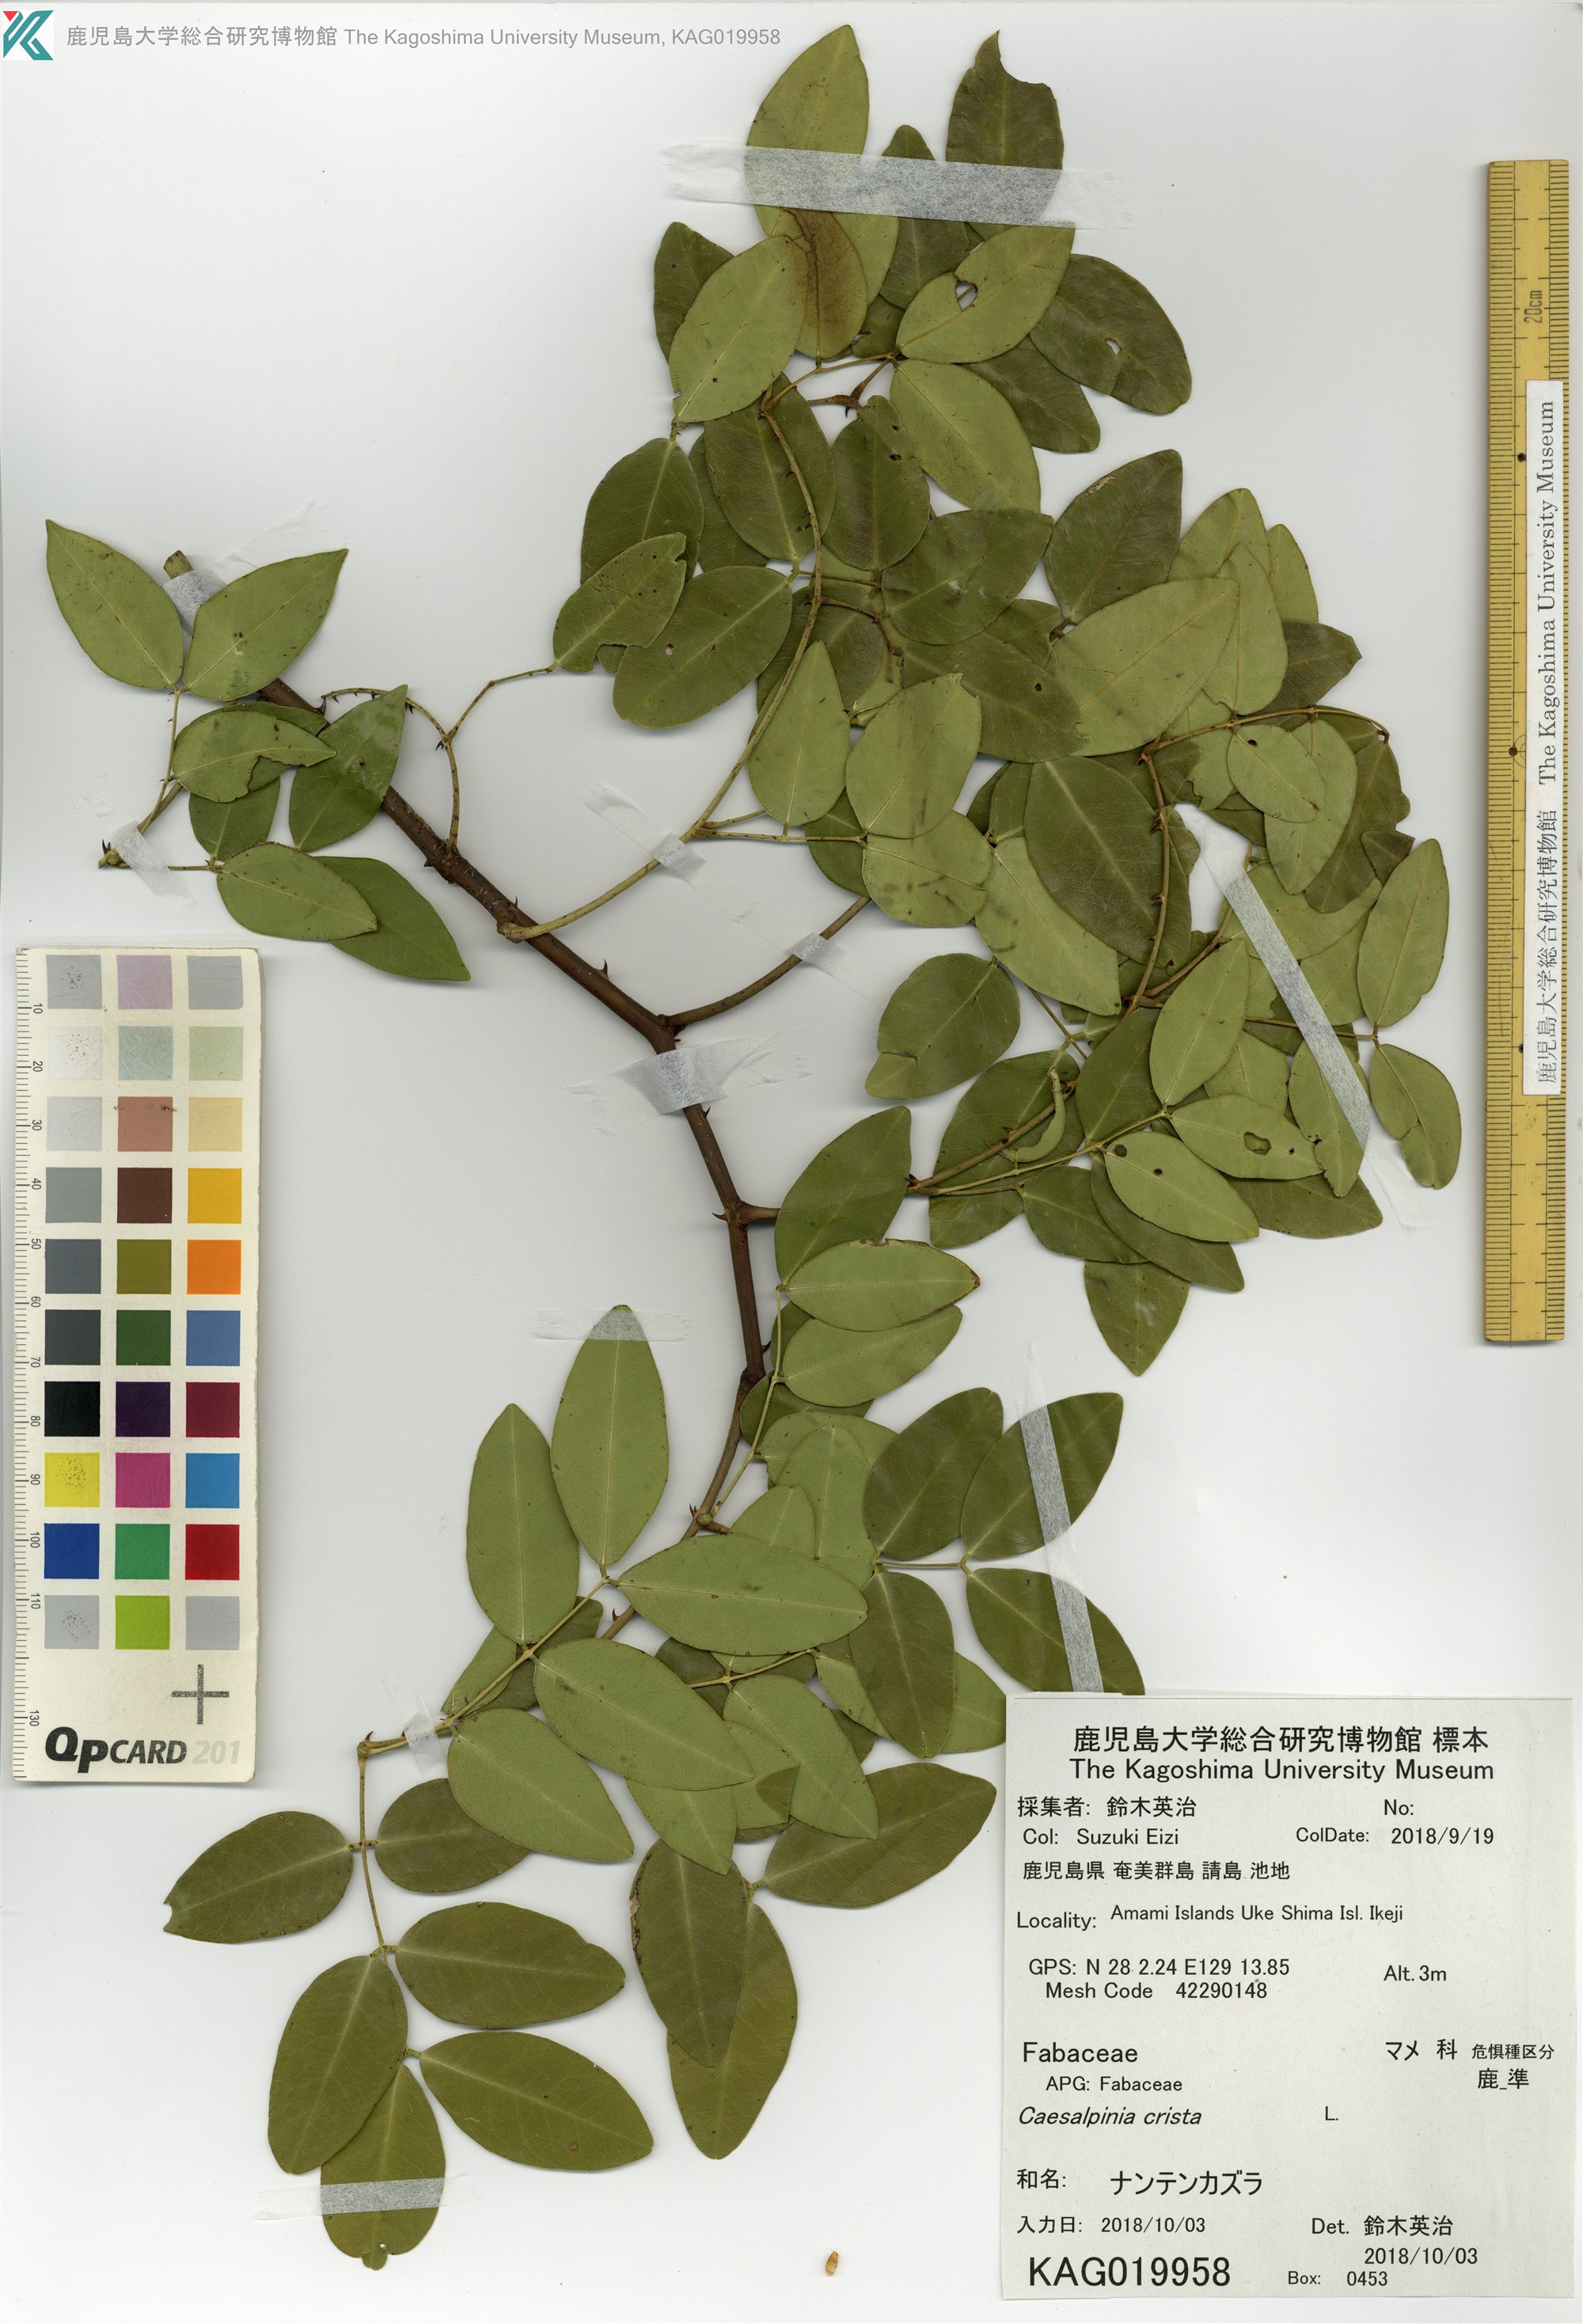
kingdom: Plantae
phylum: Tracheophyta
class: Magnoliopsida
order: Fabales
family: Fabaceae
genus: Caesalpinia
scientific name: Caesalpinia Ticanto crista
